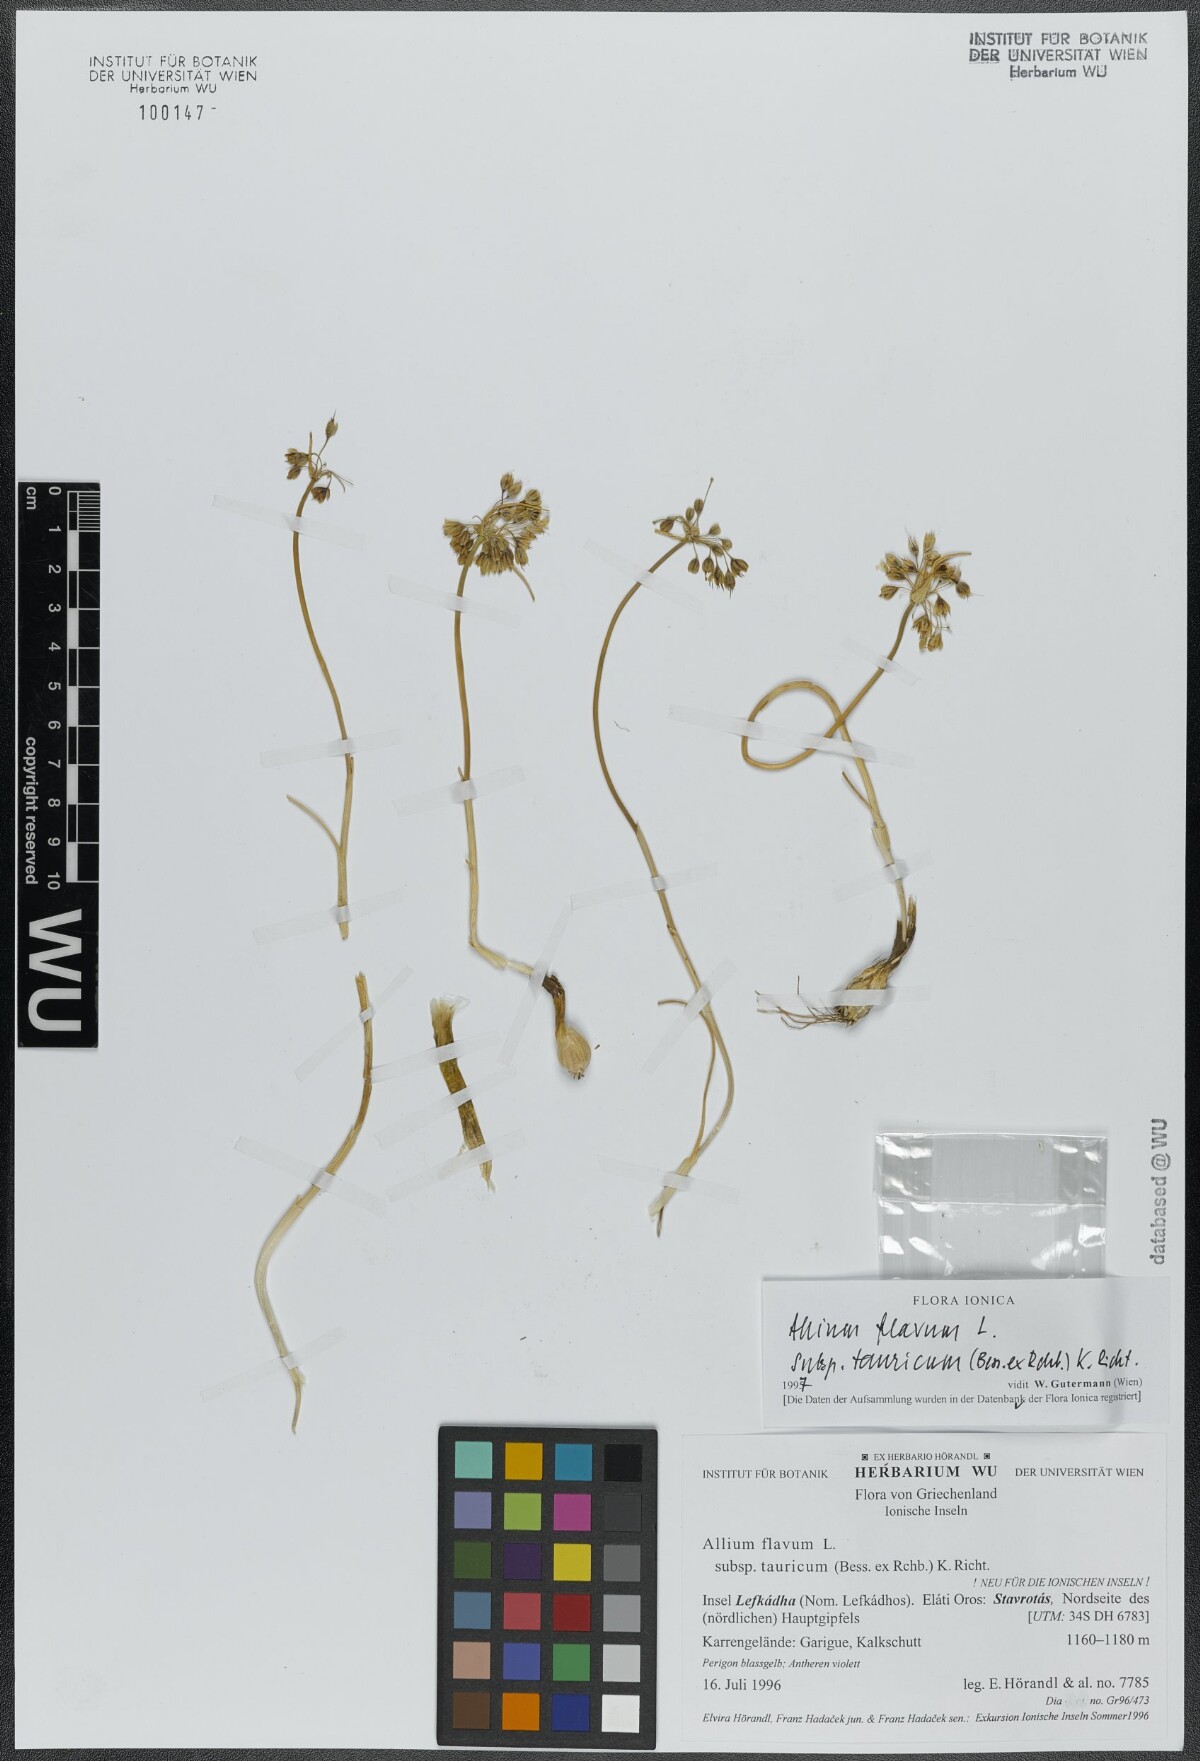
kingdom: Plantae
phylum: Tracheophyta
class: Liliopsida
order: Asparagales
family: Amaryllidaceae
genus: Allium
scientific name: Allium flavum
